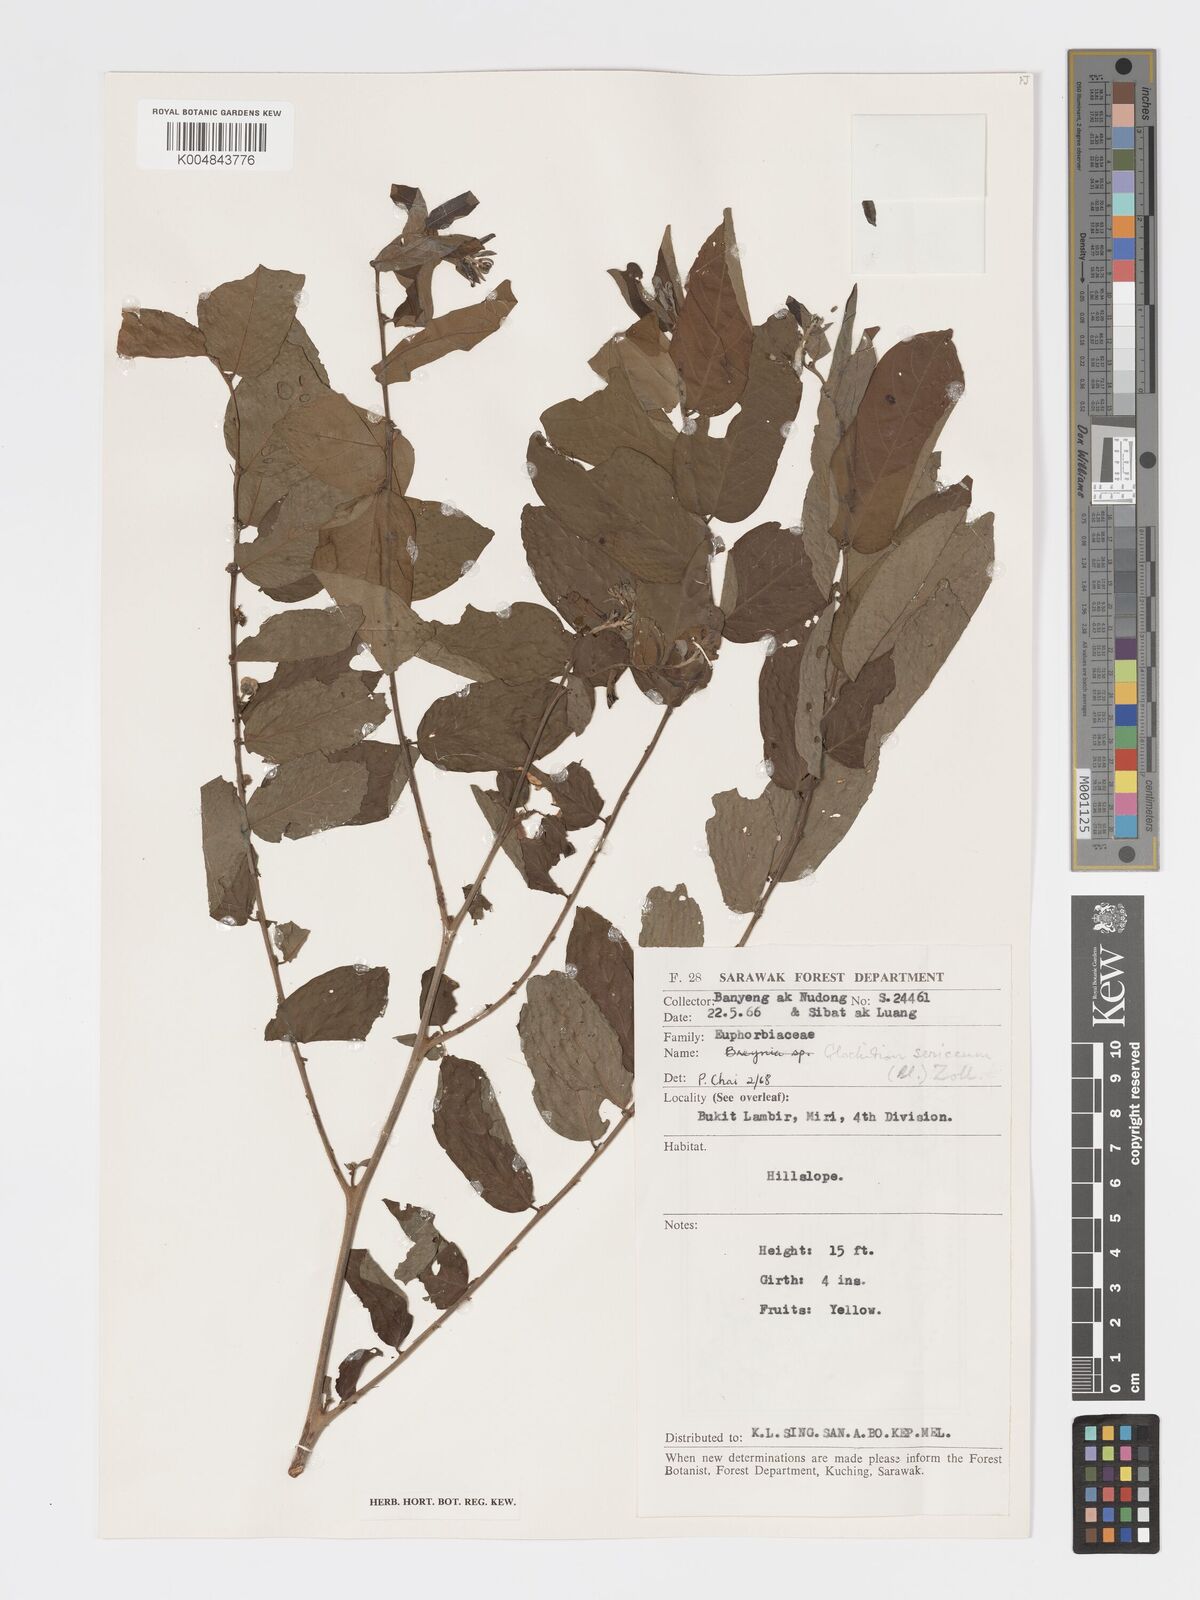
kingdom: Plantae
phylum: Tracheophyta
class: Magnoliopsida
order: Malpighiales
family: Phyllanthaceae
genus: Glochidion
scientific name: Glochidion sericeum
